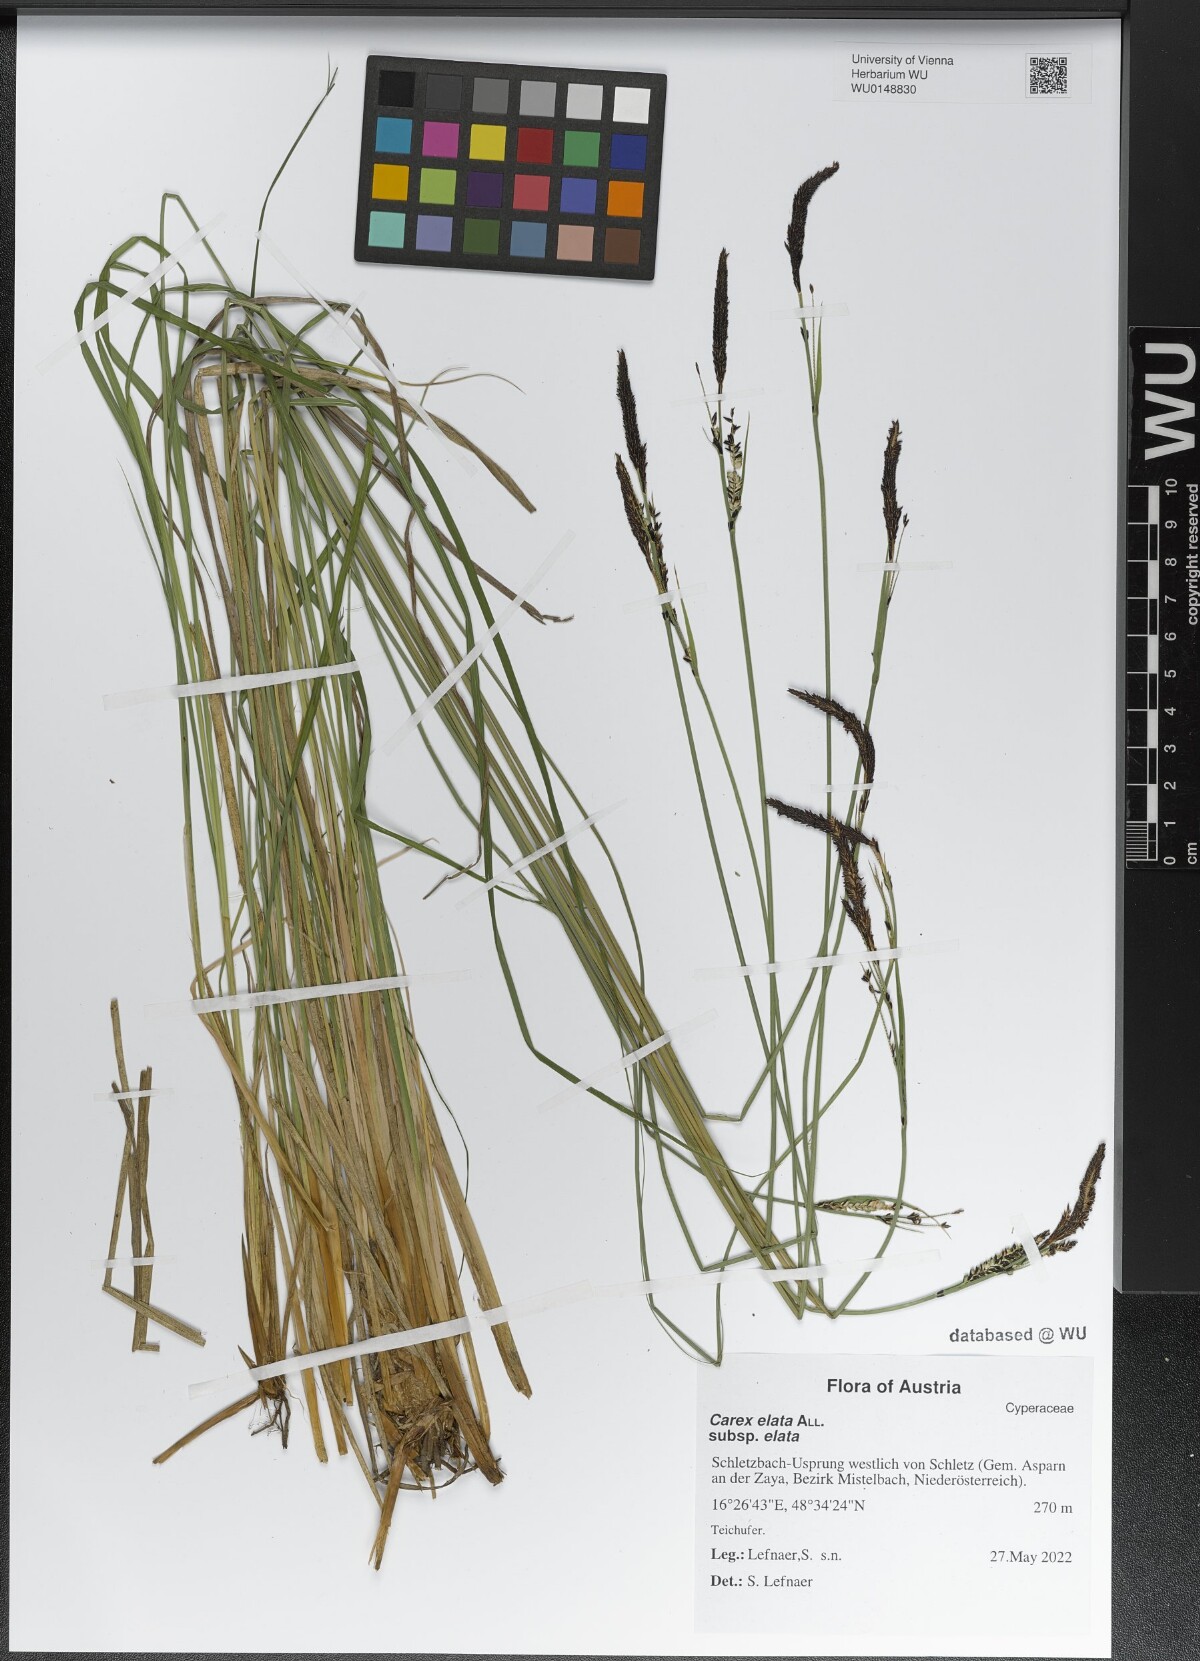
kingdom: Plantae
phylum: Tracheophyta
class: Liliopsida
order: Poales
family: Cyperaceae
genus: Carex
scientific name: Carex elata
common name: Tufted sedge
